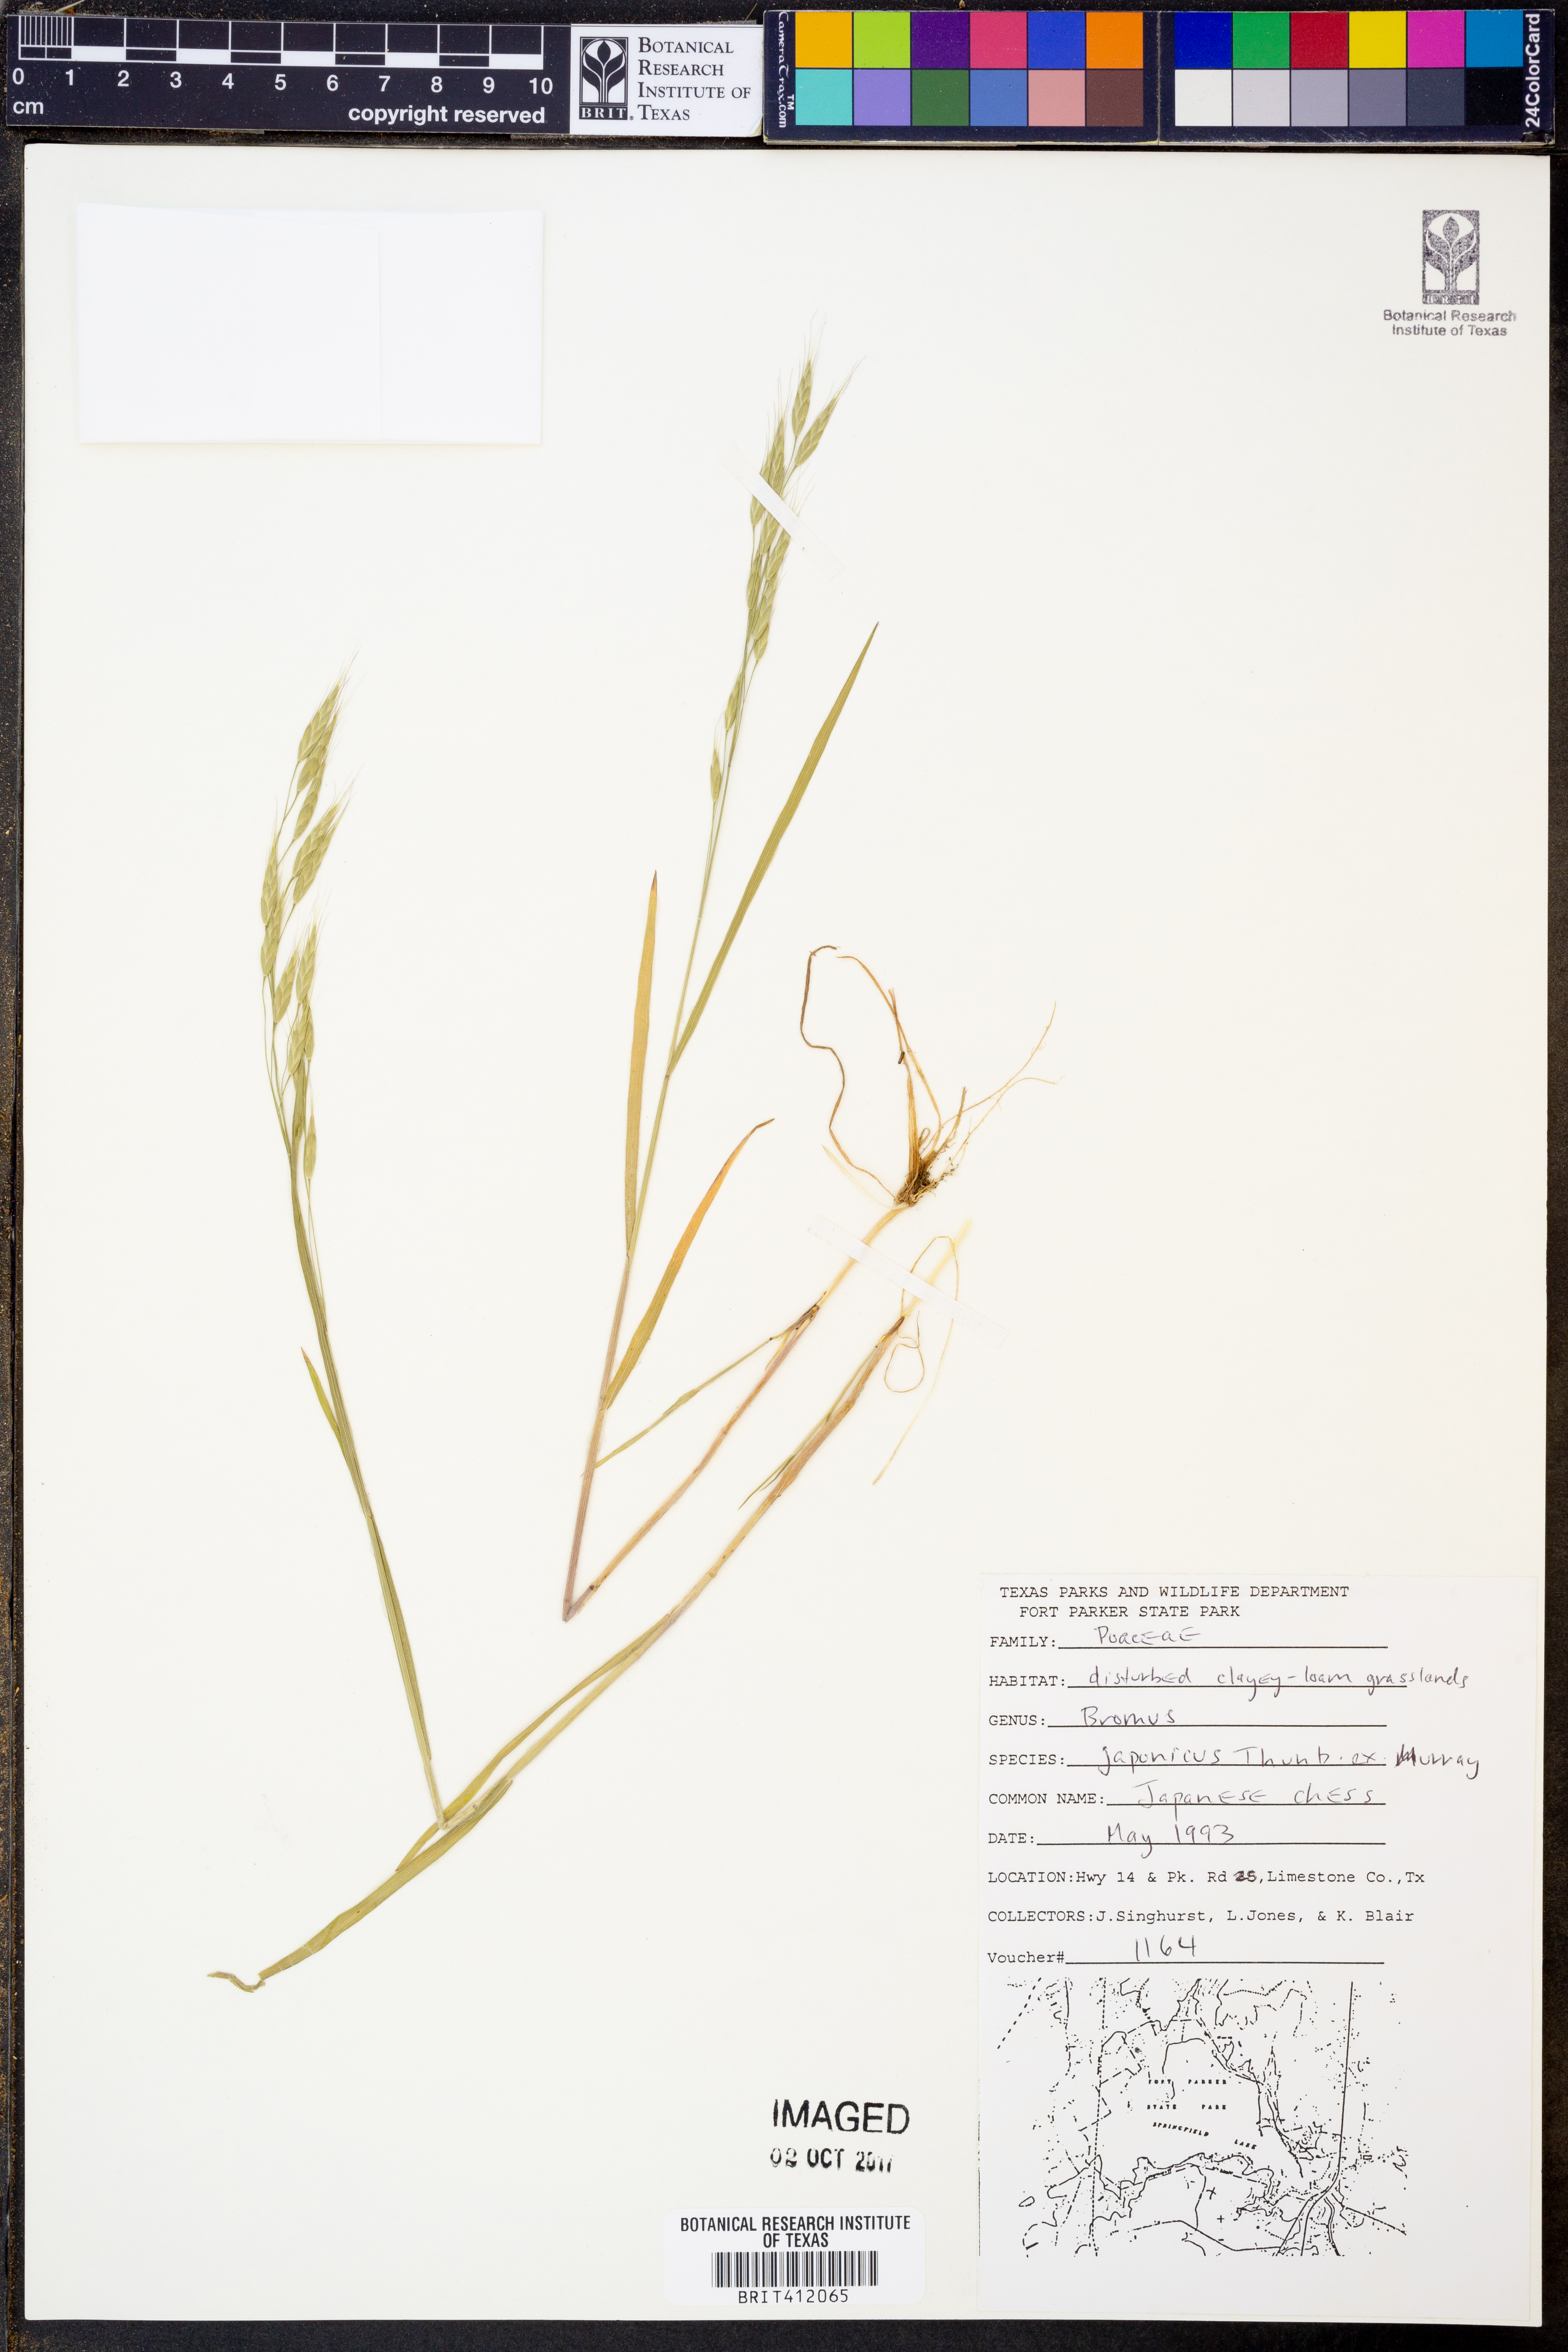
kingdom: Plantae
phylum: Tracheophyta
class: Liliopsida
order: Poales
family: Poaceae
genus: Bromus
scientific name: Bromus japonicus
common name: Japanese brome
